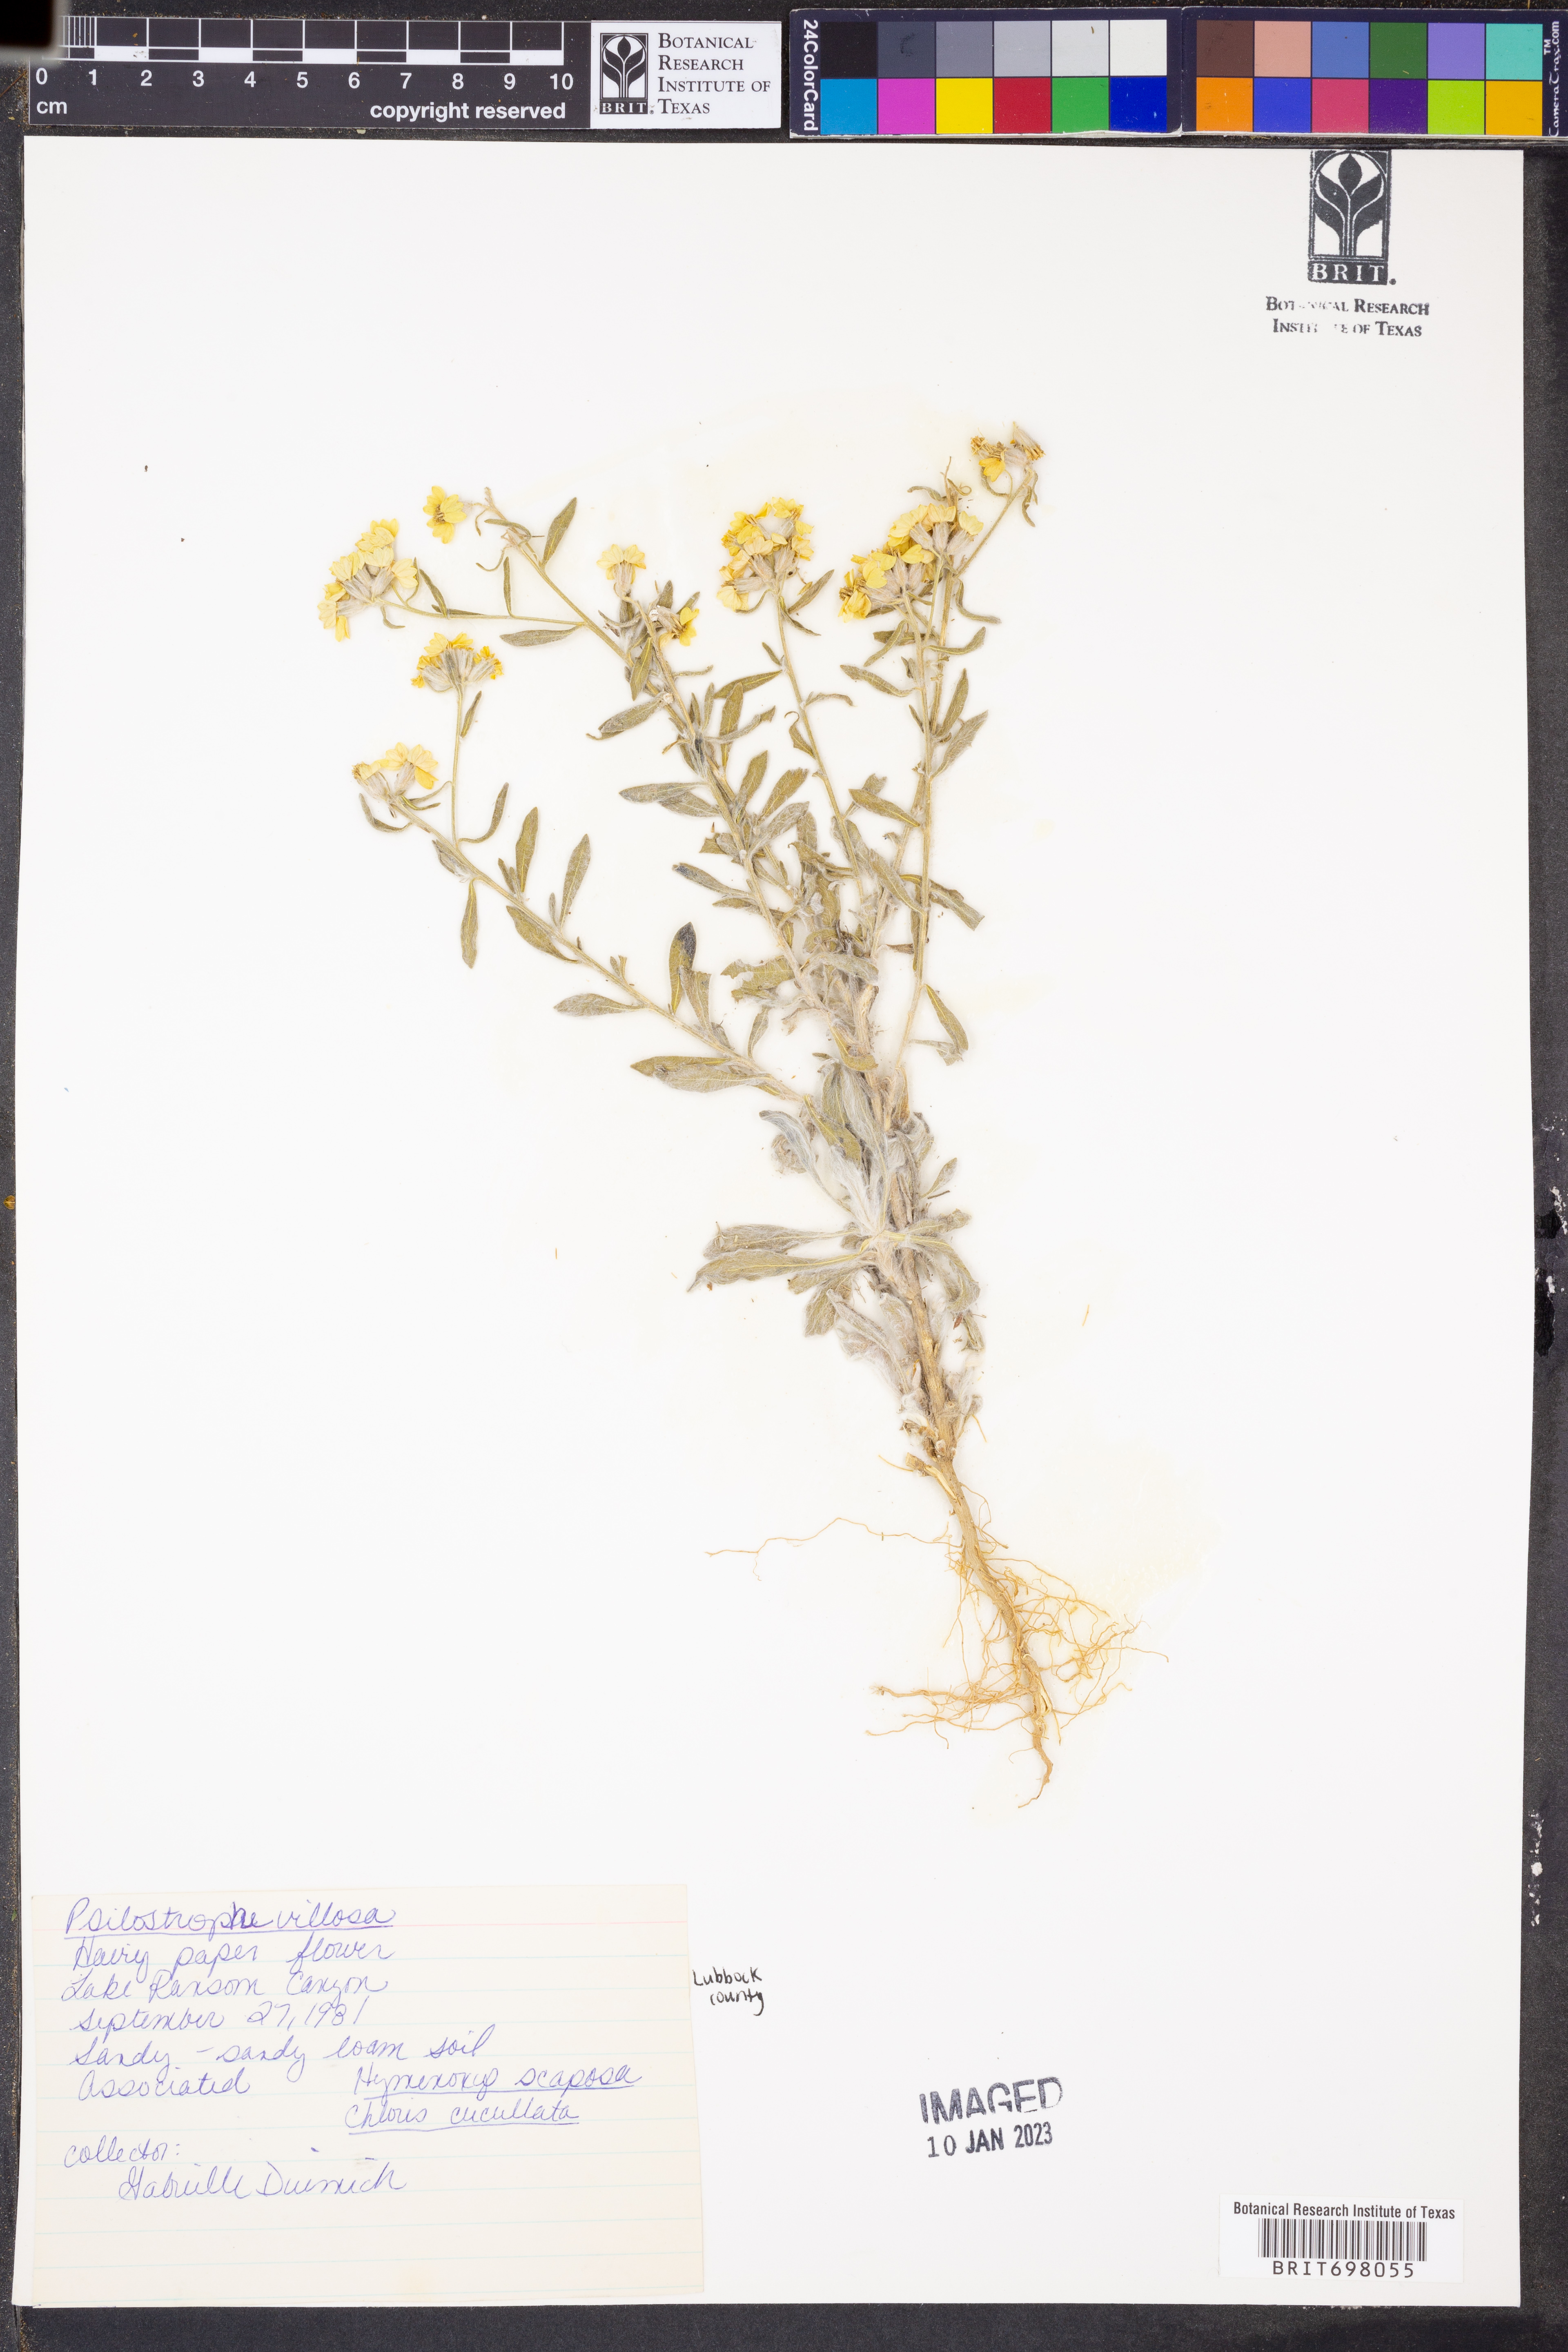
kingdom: Plantae
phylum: Tracheophyta
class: Magnoliopsida
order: Asterales
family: Asteraceae
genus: Psilostrophe
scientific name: Psilostrophe villosa
